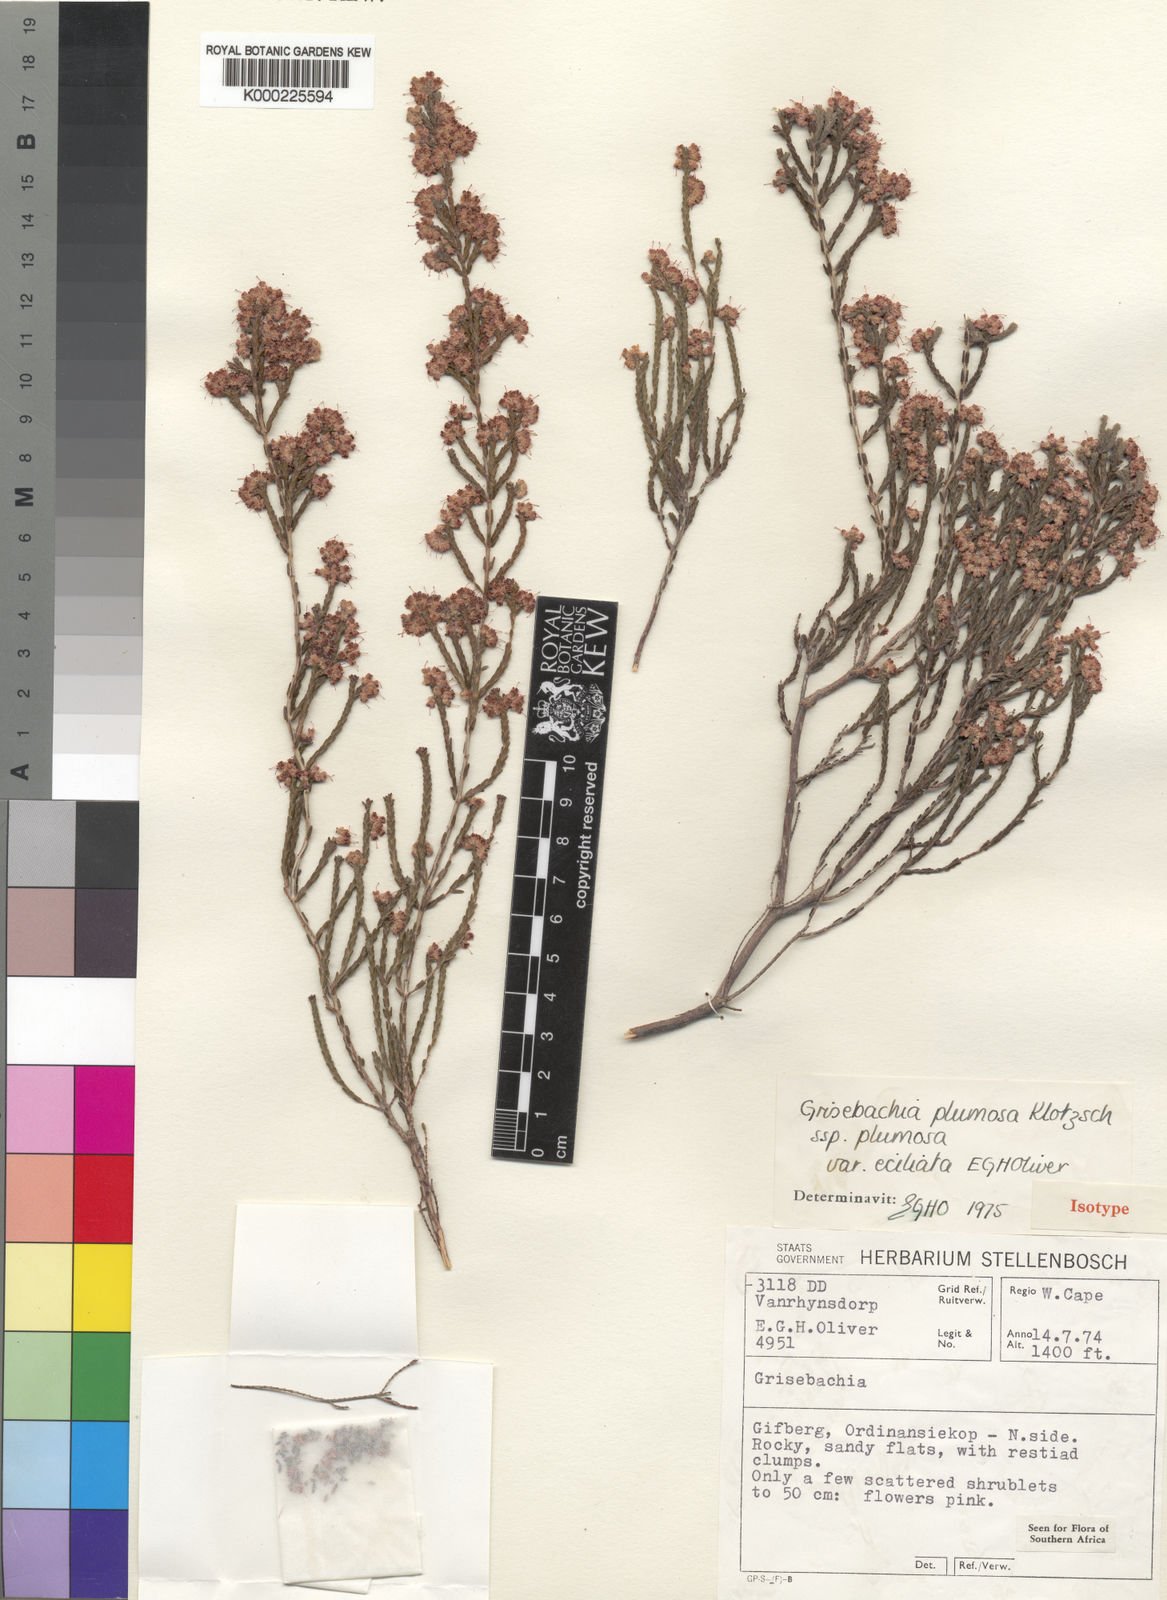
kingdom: Plantae
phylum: Tracheophyta
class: Magnoliopsida
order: Ericales
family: Ericaceae
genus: Erica
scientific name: Erica plumosa
